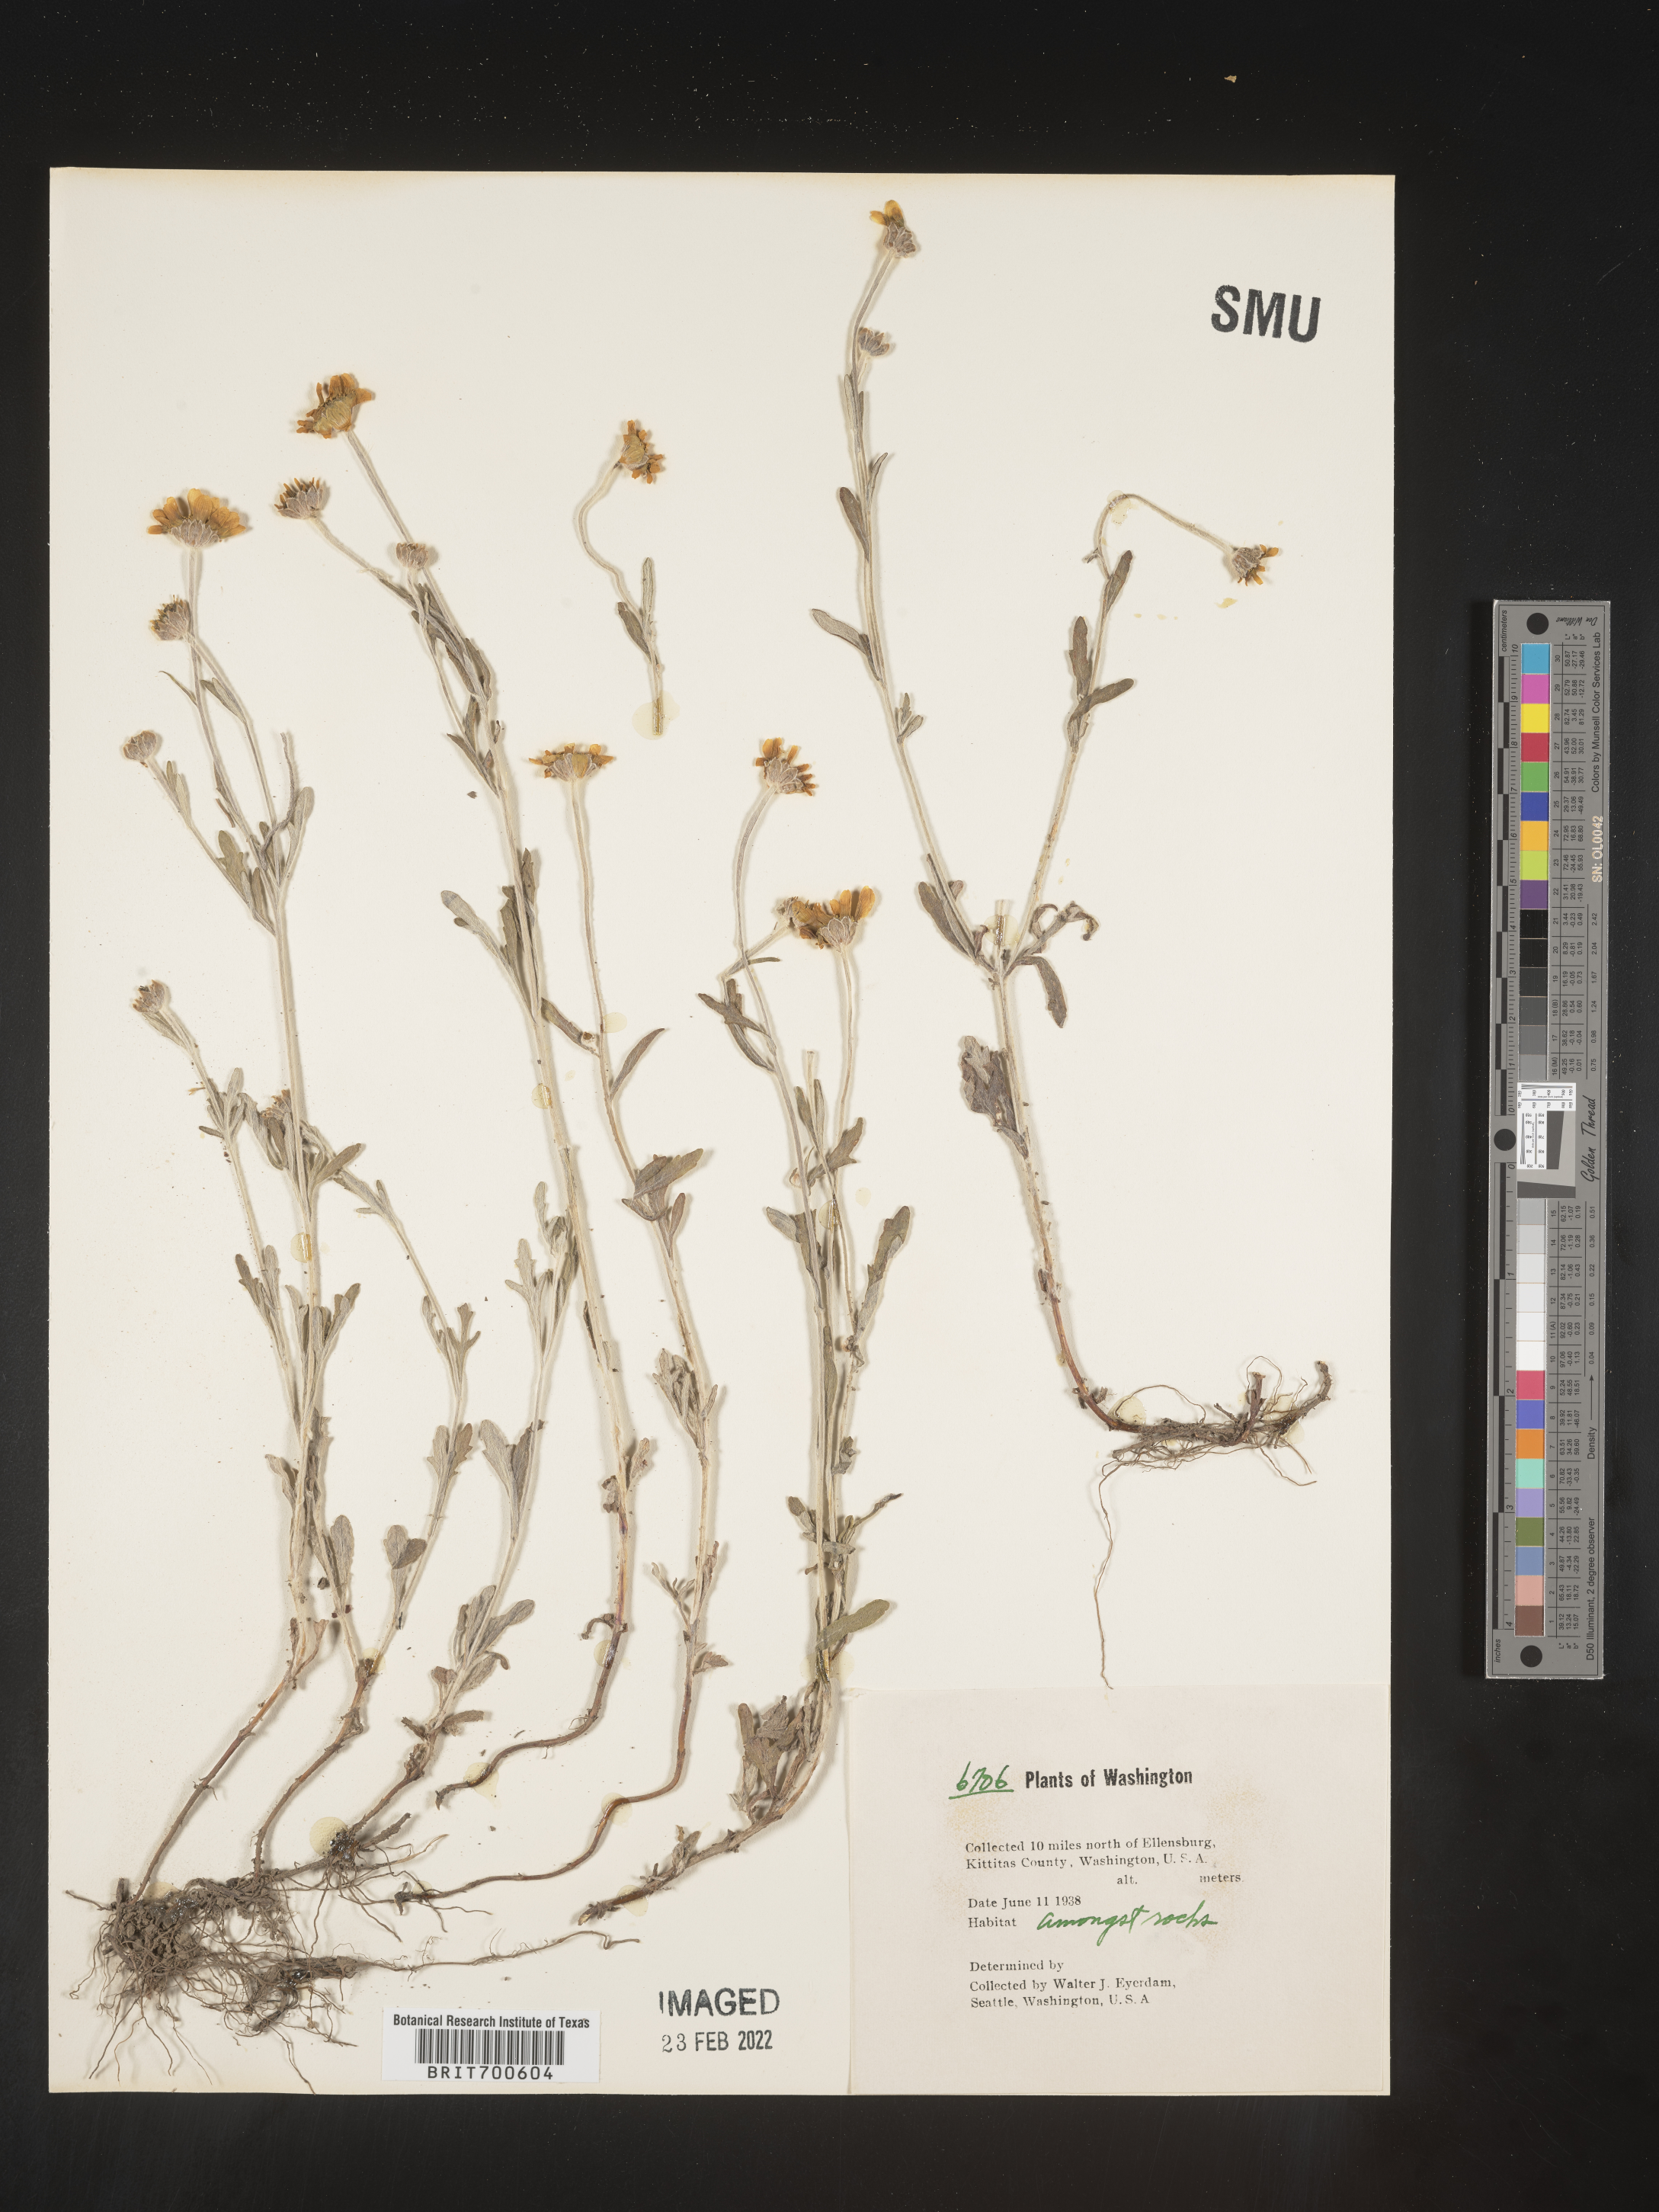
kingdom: Plantae
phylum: Tracheophyta
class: Magnoliopsida
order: Asterales
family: Asteraceae
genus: Eriophyllum
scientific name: Eriophyllum
